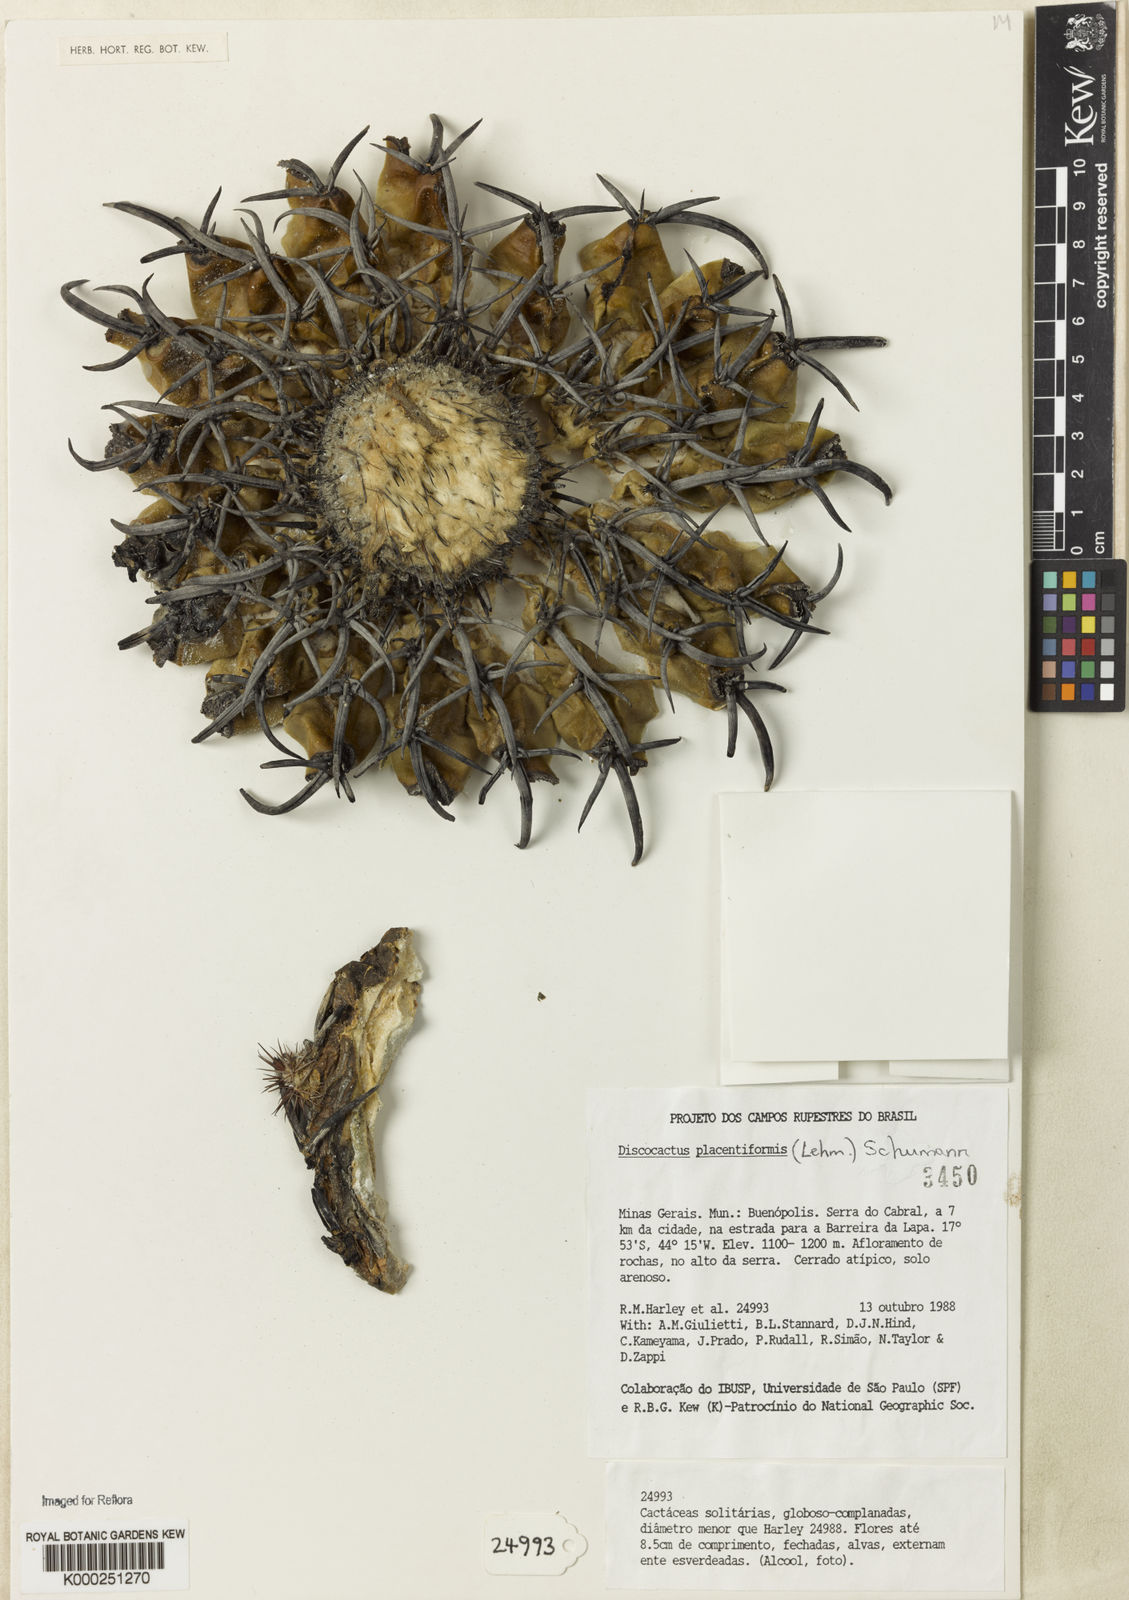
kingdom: Plantae
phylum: Tracheophyta
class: Magnoliopsida
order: Caryophyllales
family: Cactaceae
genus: Discocactus
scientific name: Discocactus placentiformis
